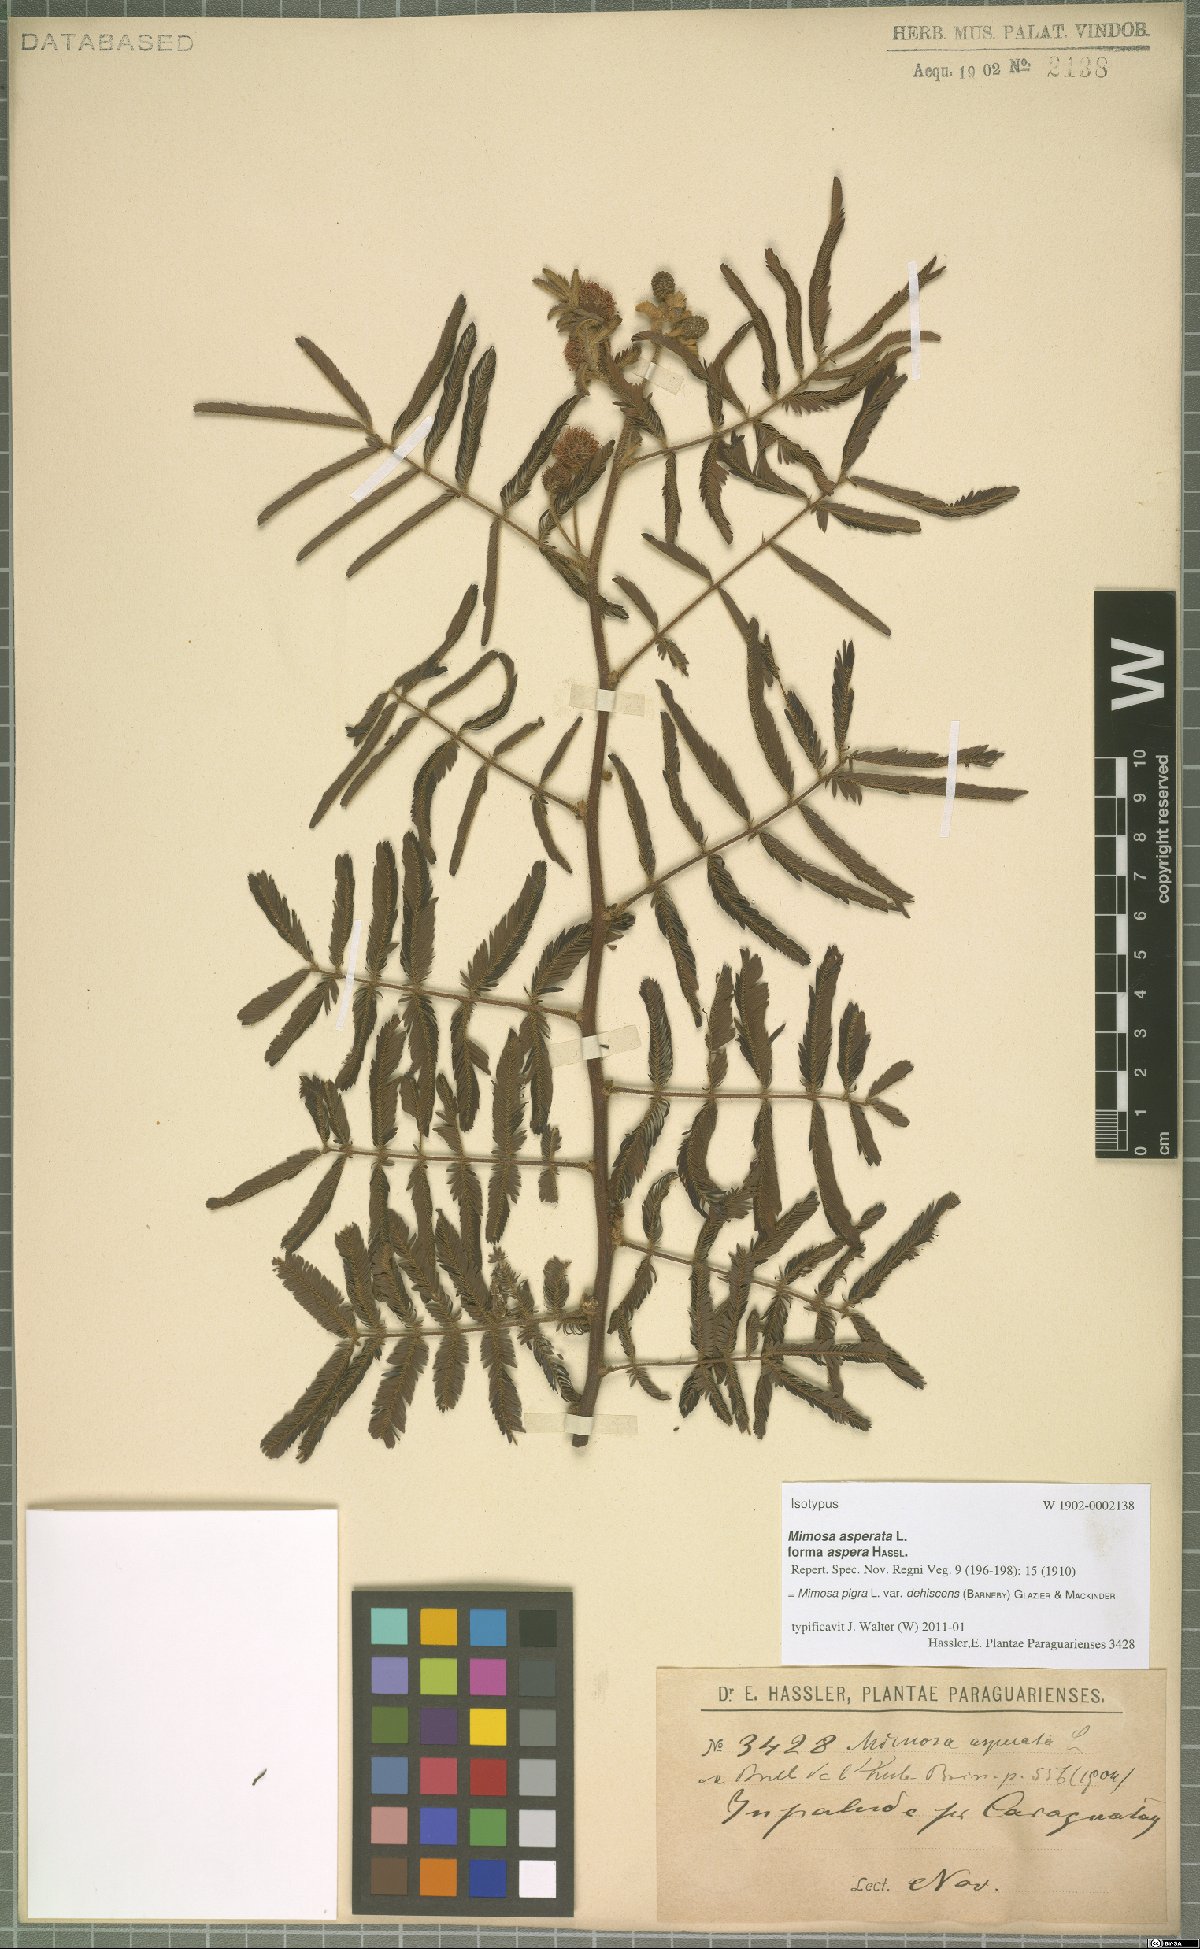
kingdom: Plantae
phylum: Tracheophyta
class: Magnoliopsida
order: Fabales
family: Fabaceae
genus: Mimosa
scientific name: Mimosa pigra
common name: Black mimosa
